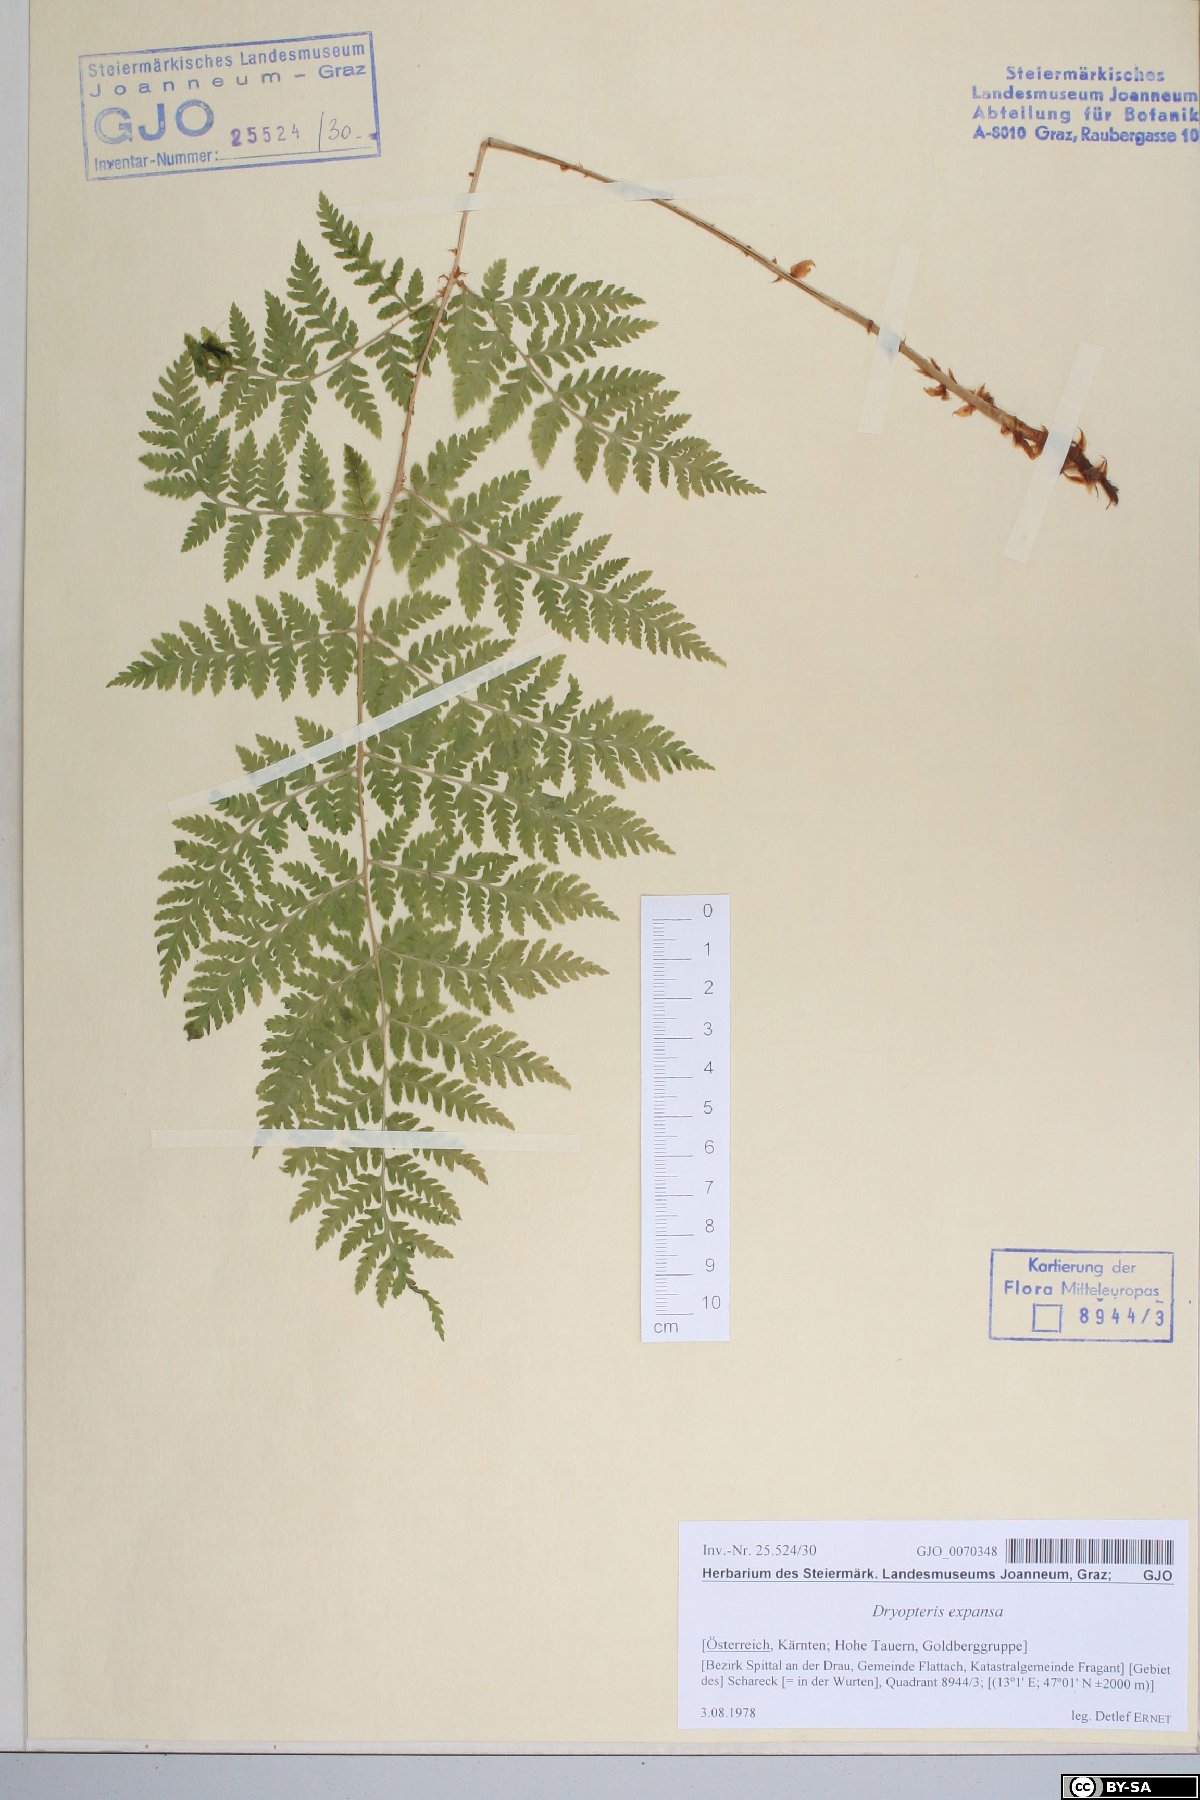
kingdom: Plantae
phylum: Tracheophyta
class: Polypodiopsida
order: Polypodiales
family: Dryopteridaceae
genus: Dryopteris
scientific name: Dryopteris expansa
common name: Northern buckler fern
